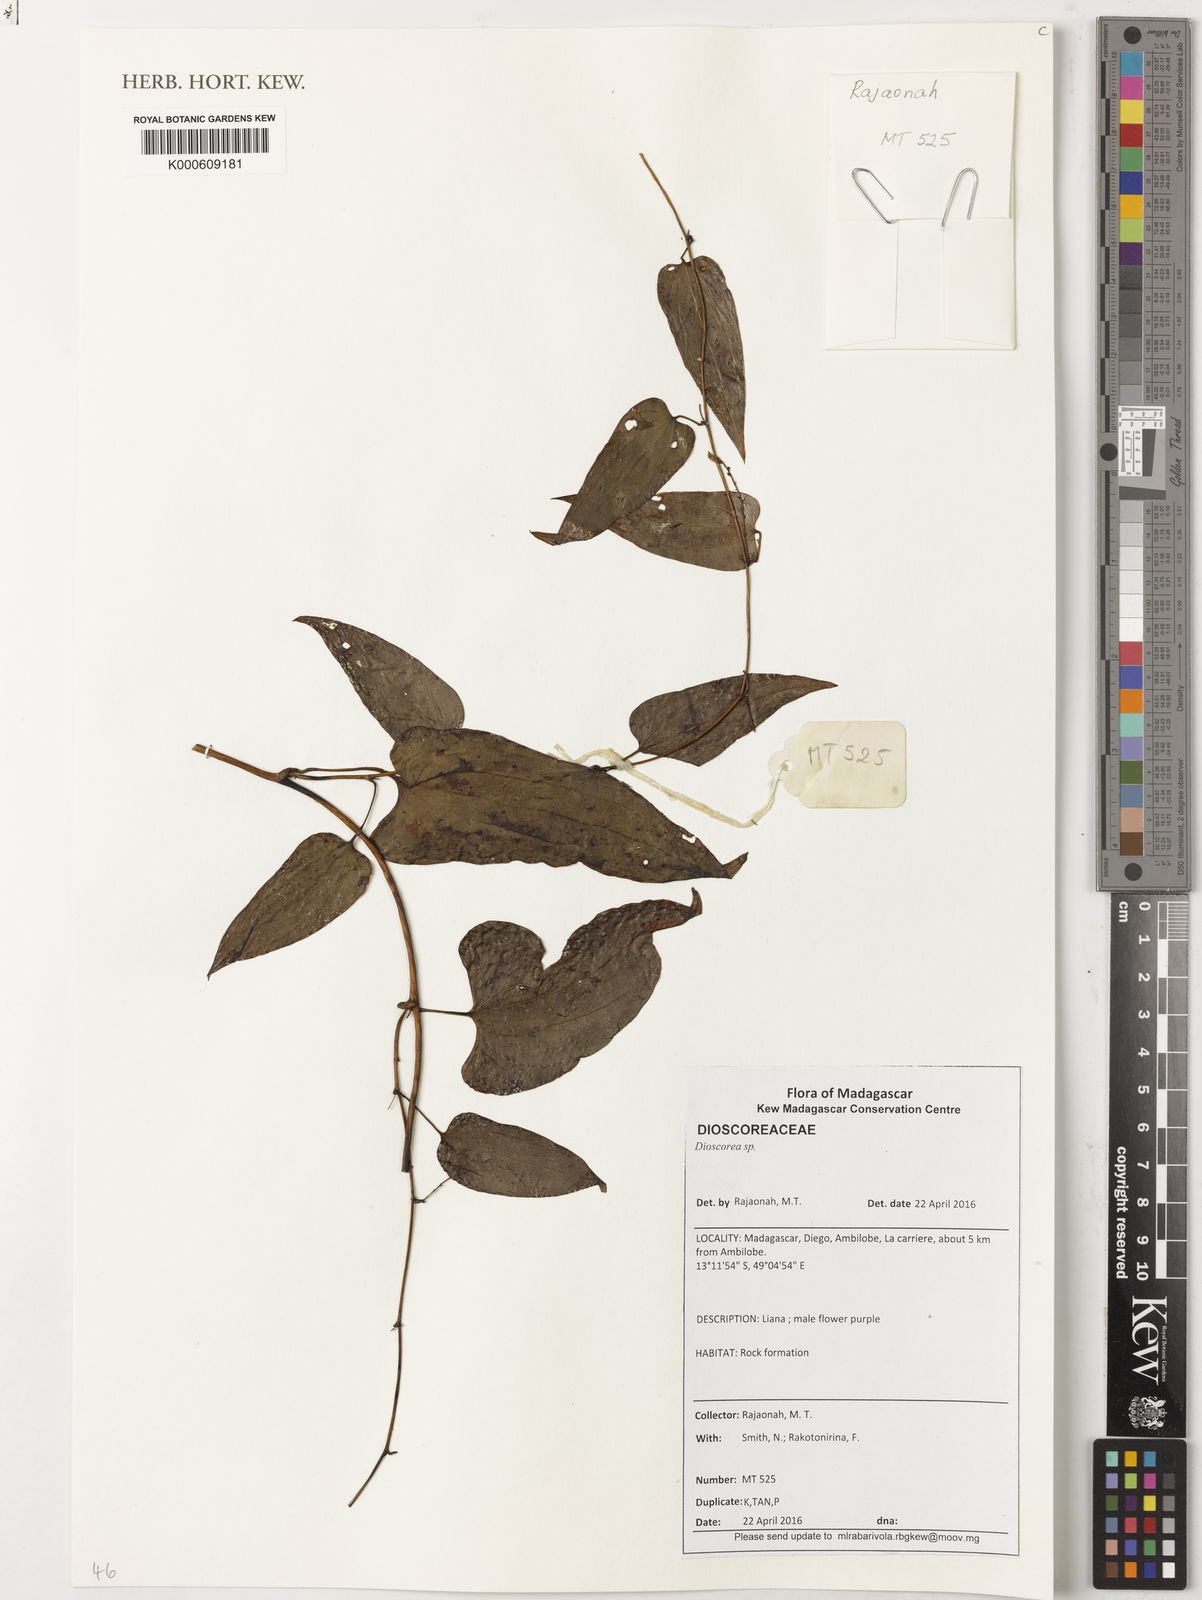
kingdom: Plantae
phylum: Tracheophyta
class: Liliopsida
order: Dioscoreales
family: Dioscoreaceae
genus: Dioscorea
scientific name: Dioscorea
